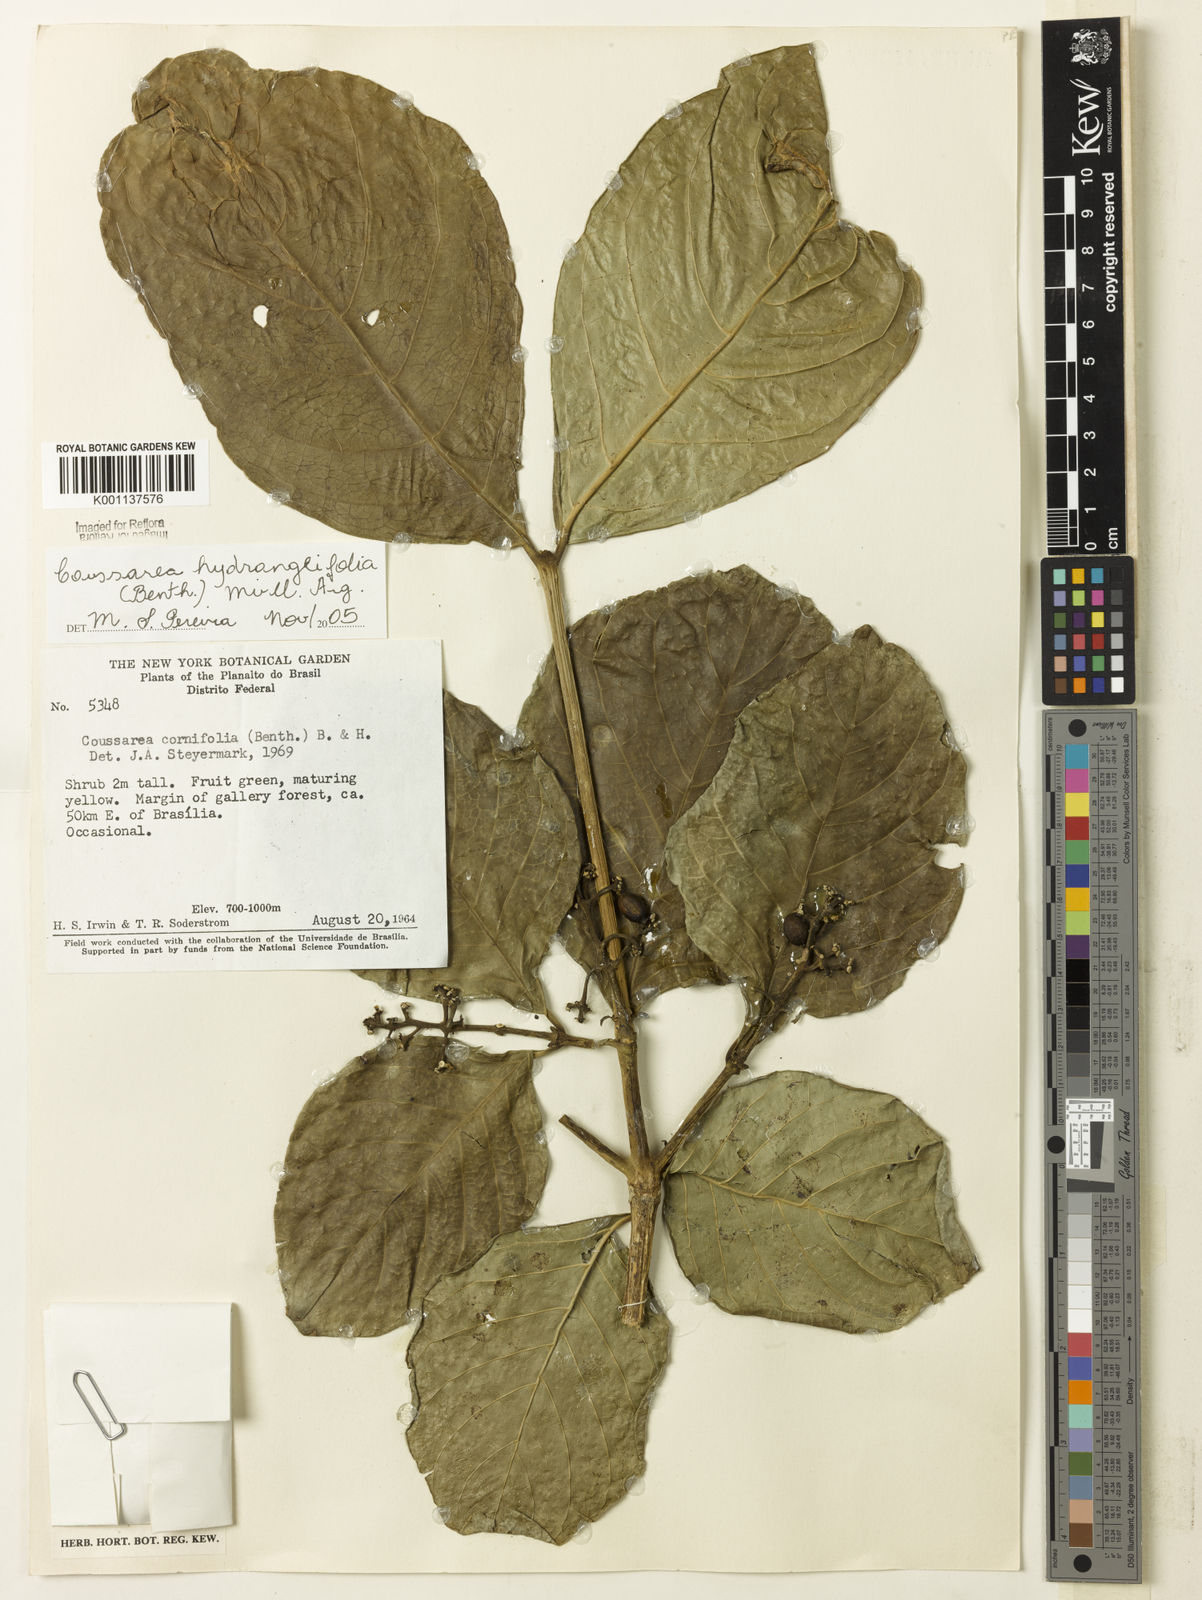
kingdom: Plantae
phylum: Tracheophyta
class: Magnoliopsida
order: Gentianales
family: Rubiaceae
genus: Coussarea
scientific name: Coussarea
